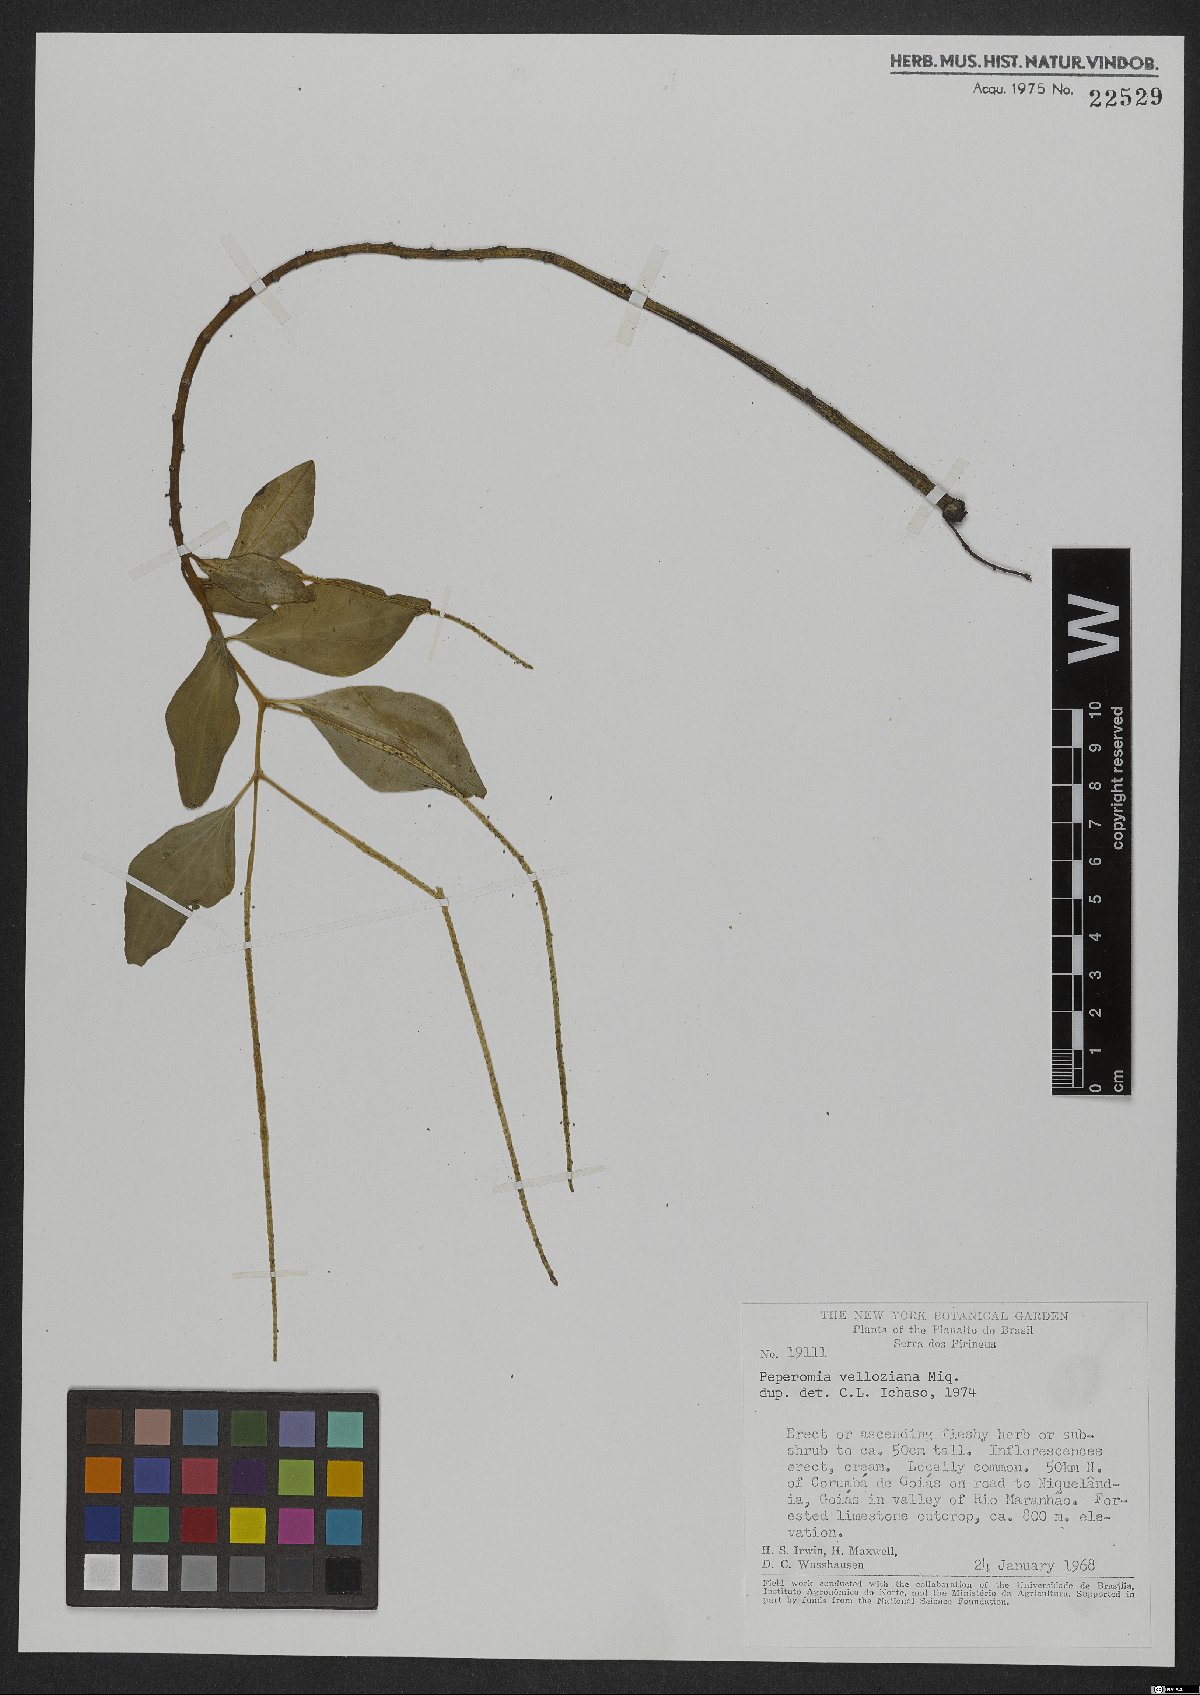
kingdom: Plantae
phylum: Tracheophyta
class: Magnoliopsida
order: Piperales
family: Piperaceae
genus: Peperomia
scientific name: Peperomia velloziana
